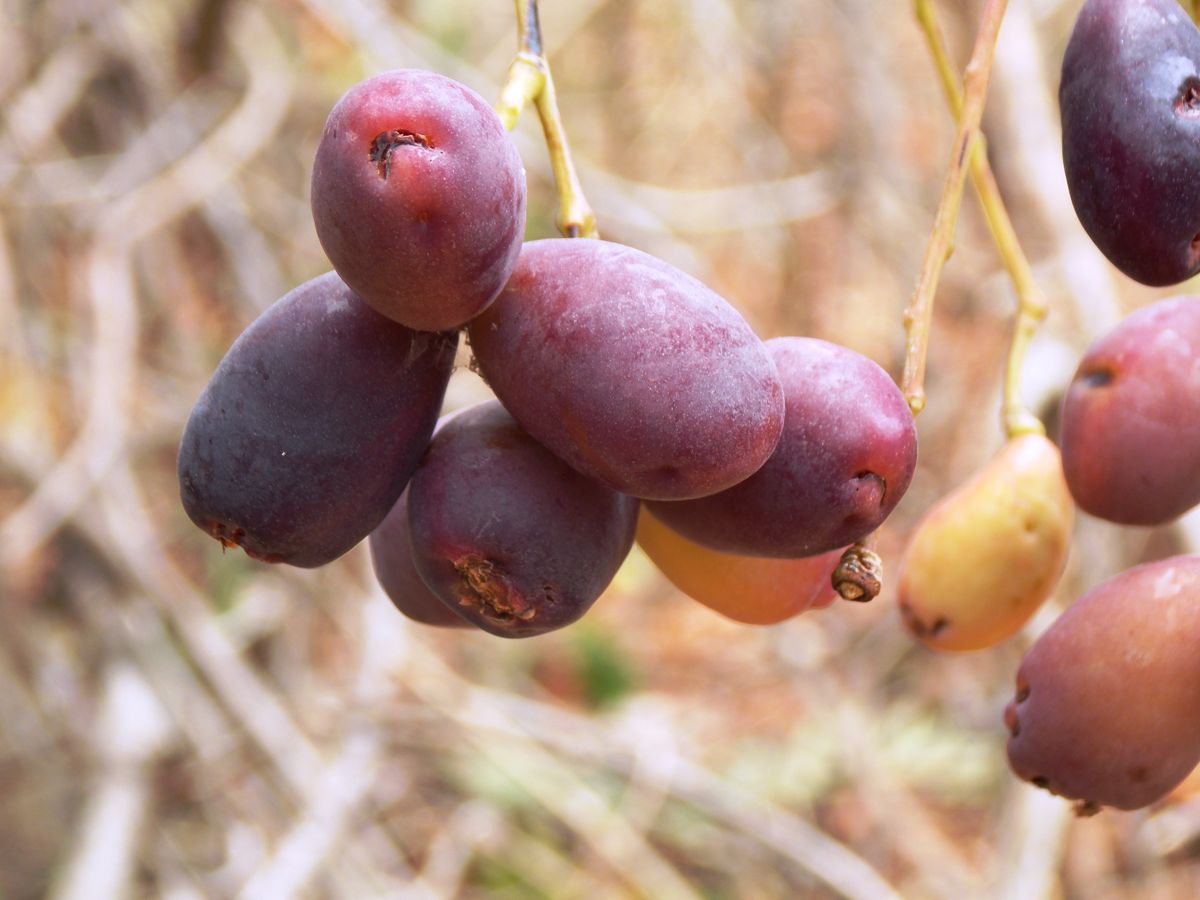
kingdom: Plantae
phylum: Tracheophyta
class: Magnoliopsida
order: Sapindales
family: Simaroubaceae
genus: Simarouba
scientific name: Simarouba amara
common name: Bitterwood
